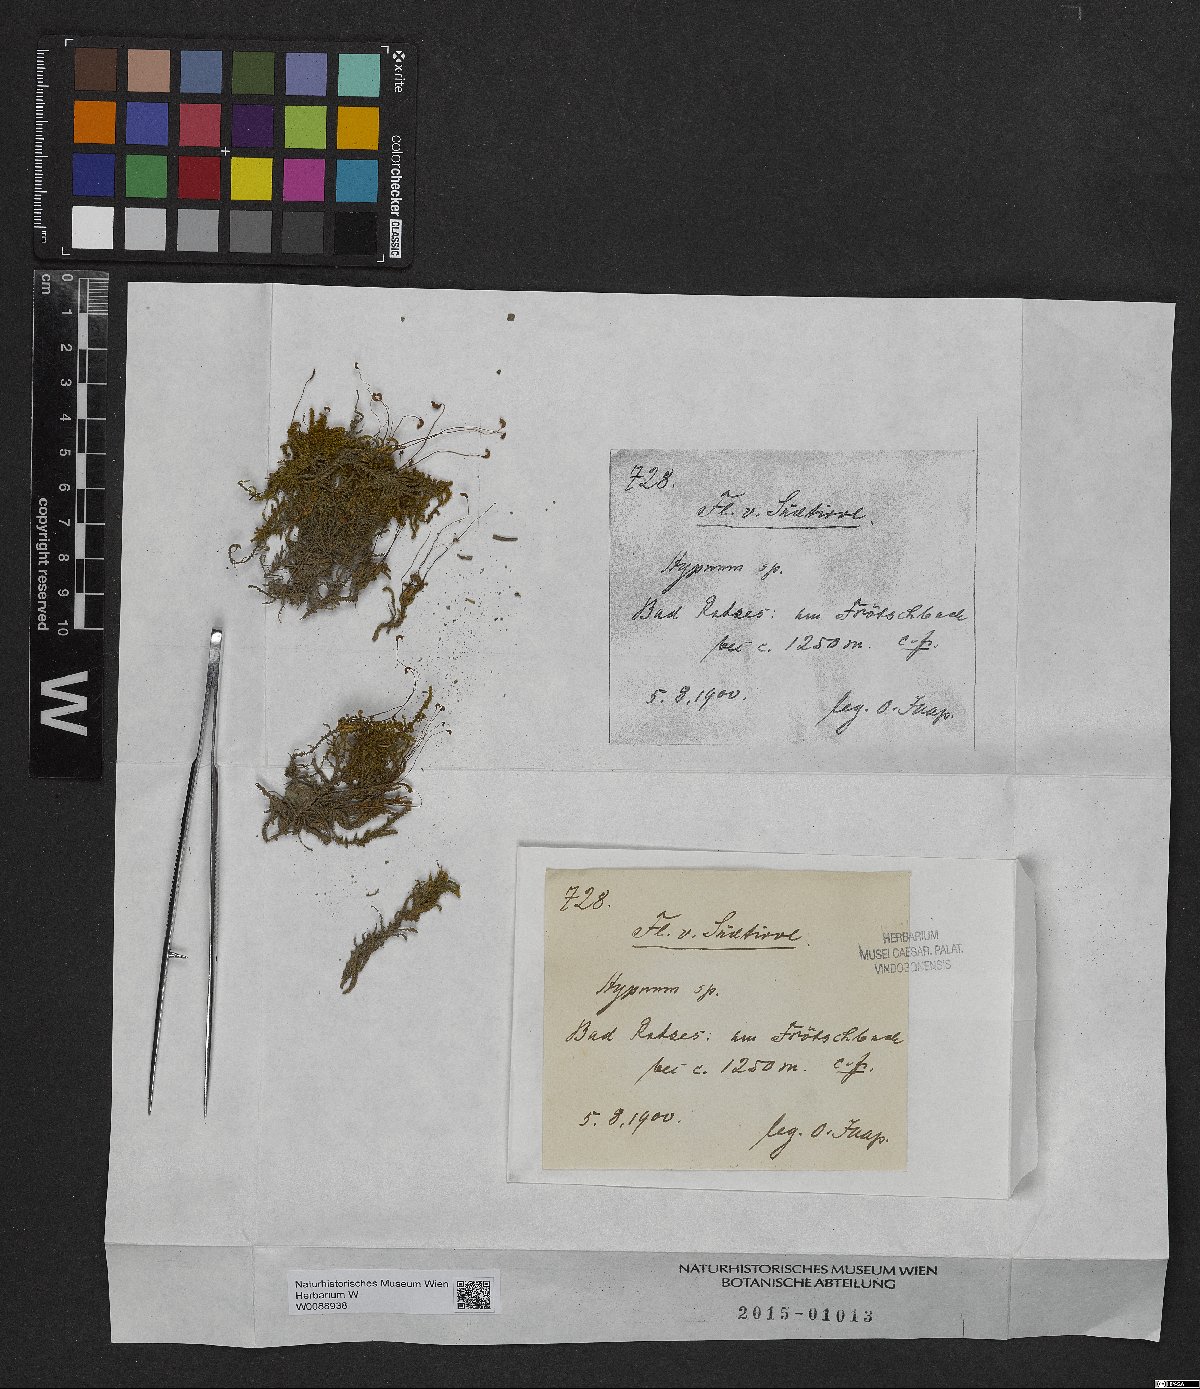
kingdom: Plantae
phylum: Bryophyta
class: Bryopsida
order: Hypnales
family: Hypnaceae
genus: Hypnum
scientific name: Hypnum
